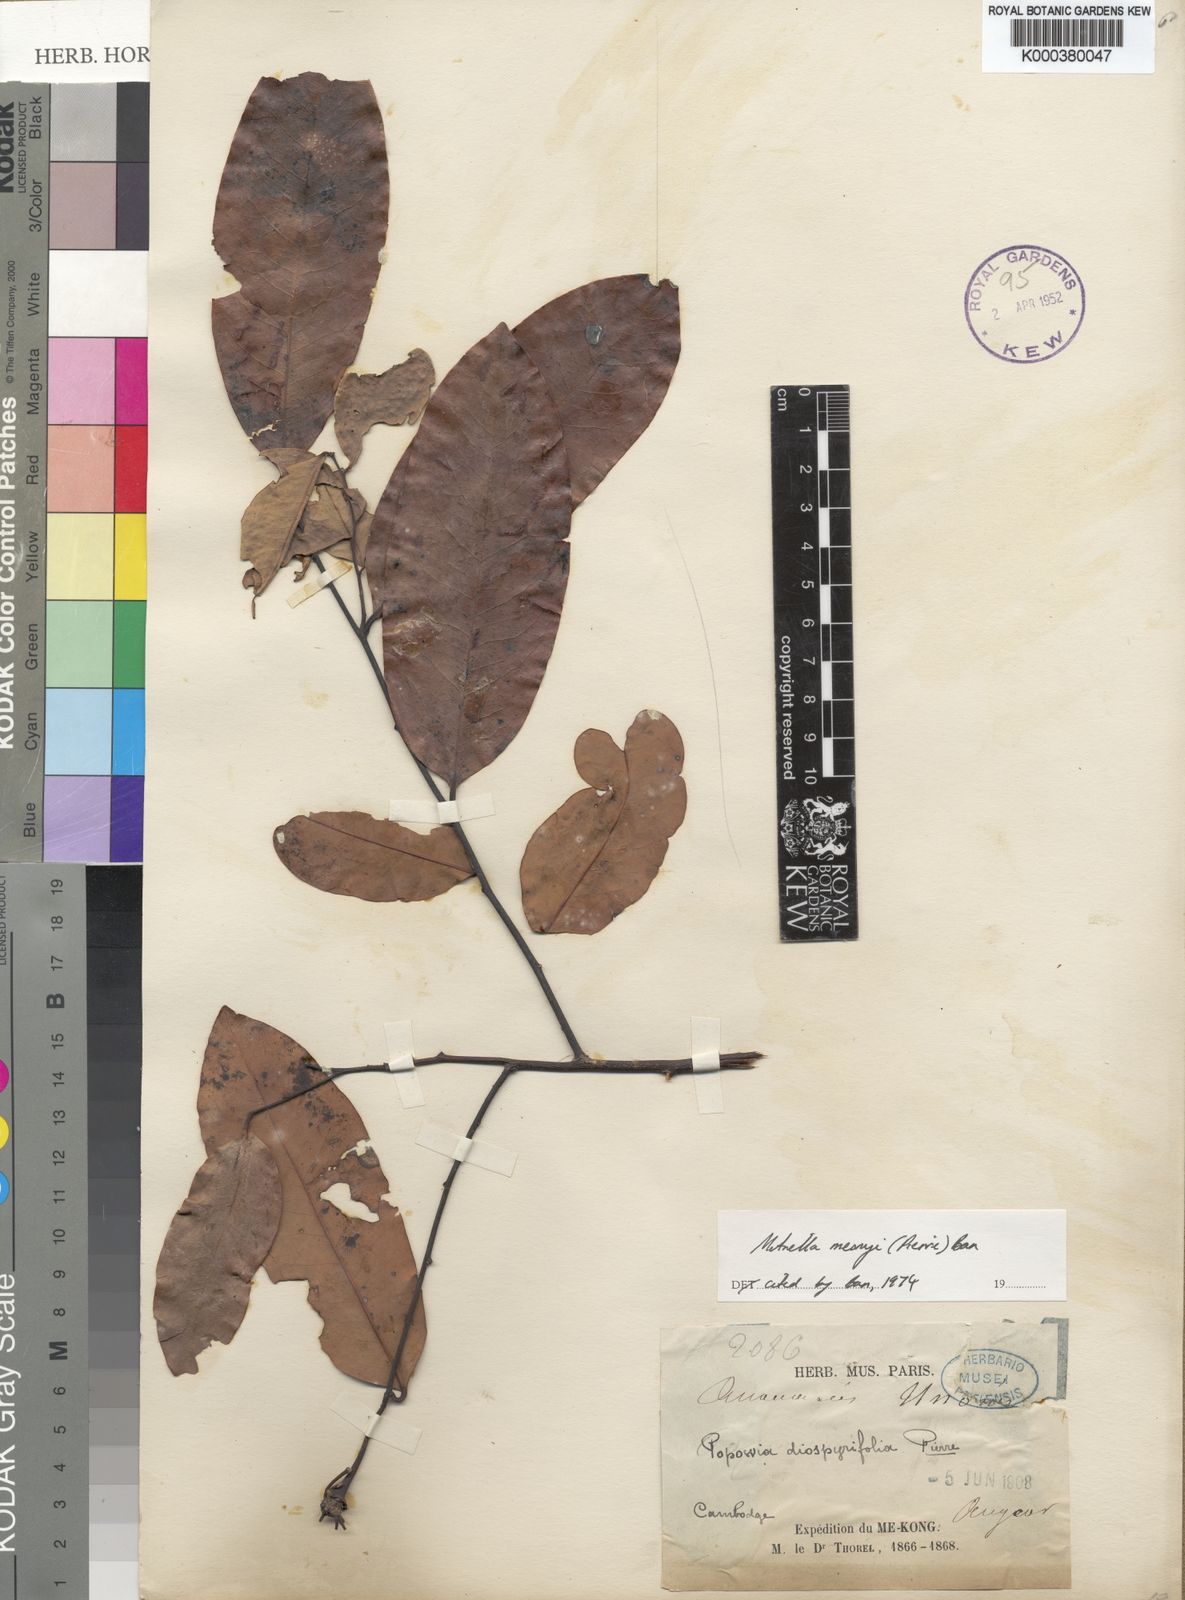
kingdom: Plantae
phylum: Tracheophyta
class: Magnoliopsida
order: Magnoliales
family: Annonaceae
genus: Sphaerocoryne
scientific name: Sphaerocoryne diospyrifolia
